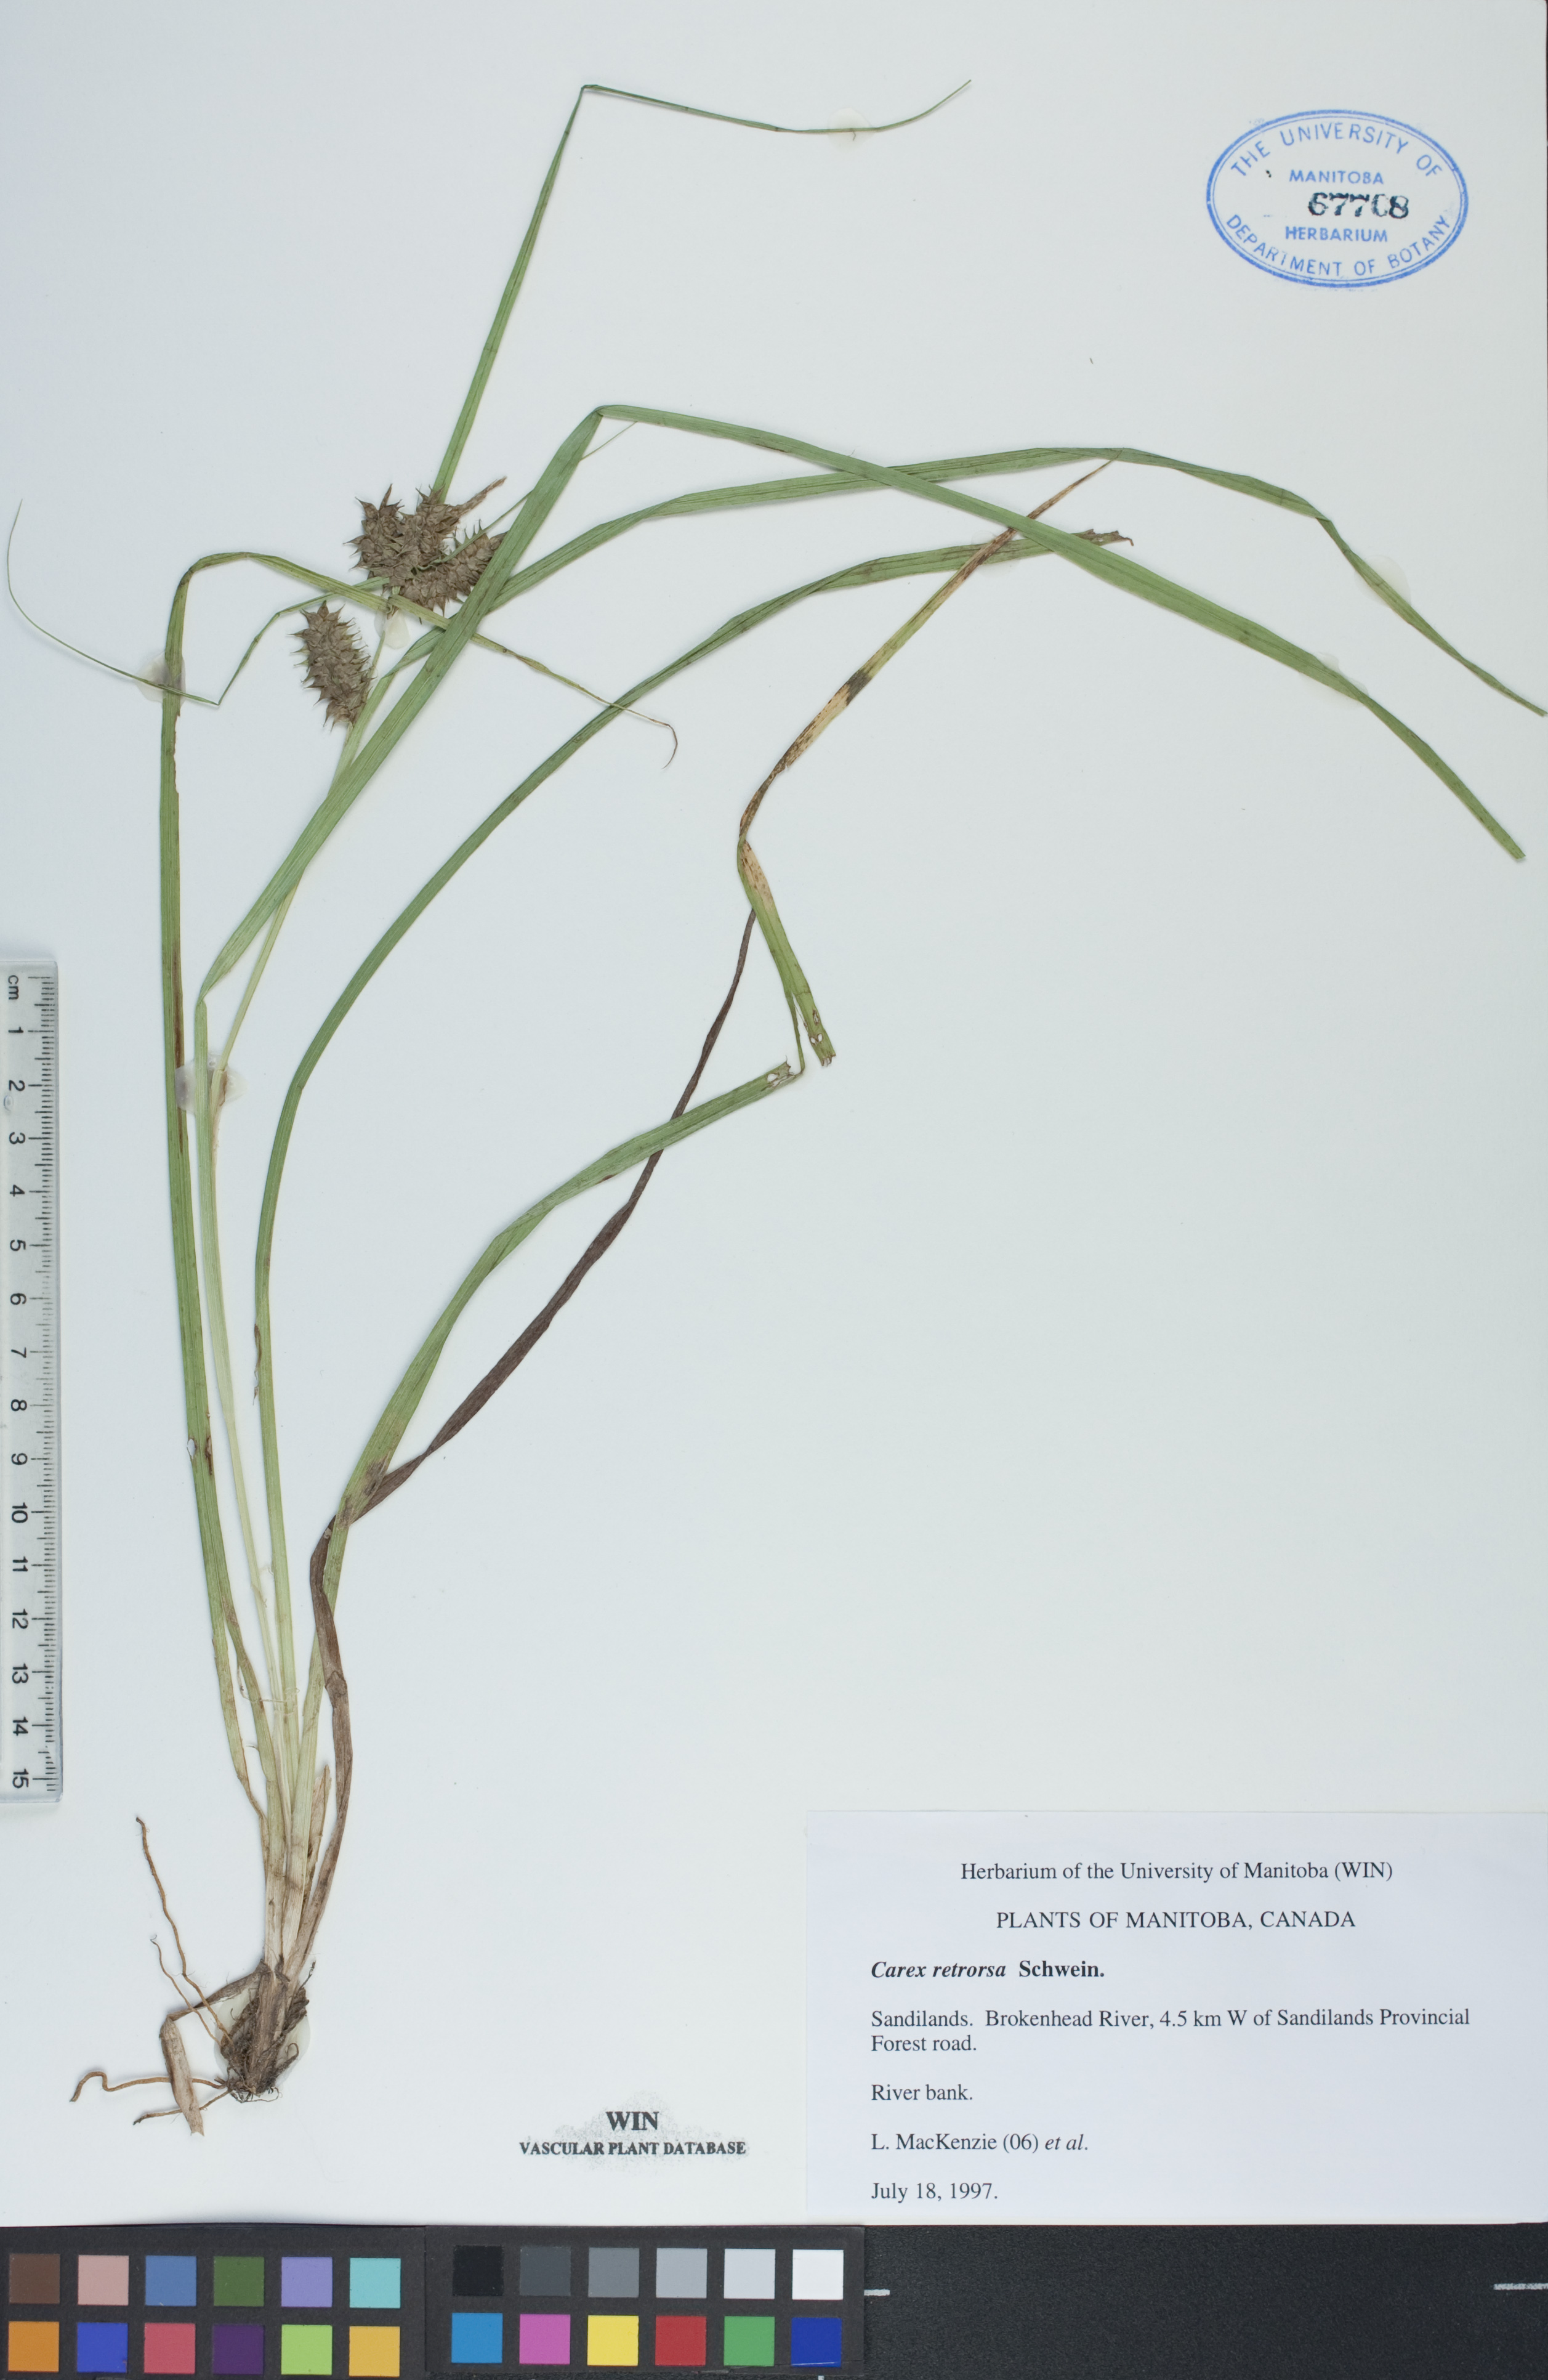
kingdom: Plantae
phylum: Tracheophyta
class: Liliopsida
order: Poales
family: Cyperaceae
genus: Carex
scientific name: Carex retrorsa
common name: Knot-sheath sedge
